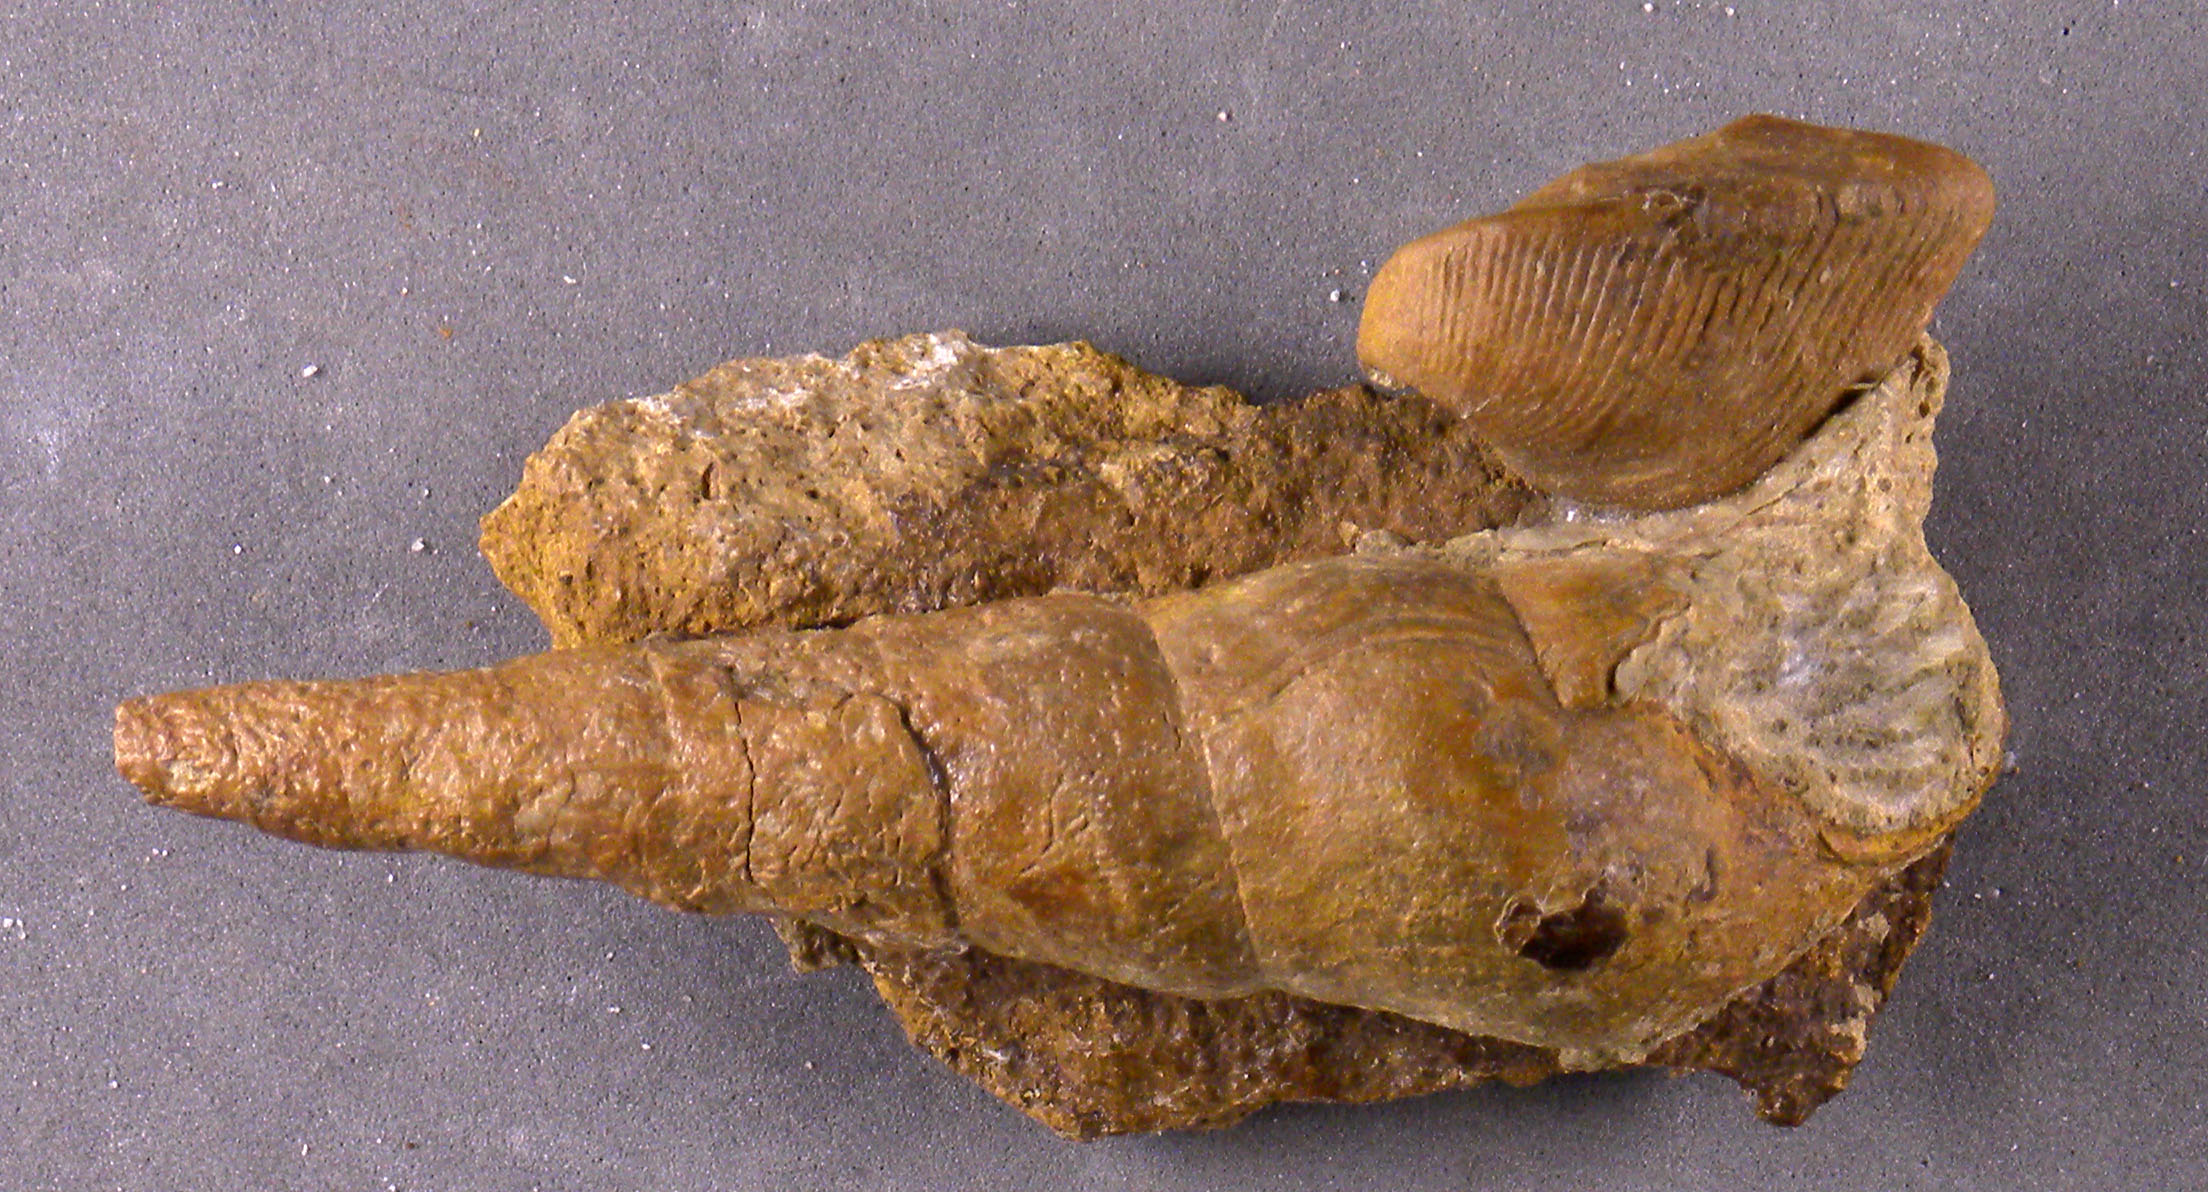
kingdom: Animalia
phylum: Mollusca
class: Gastropoda
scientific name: Gastropoda
